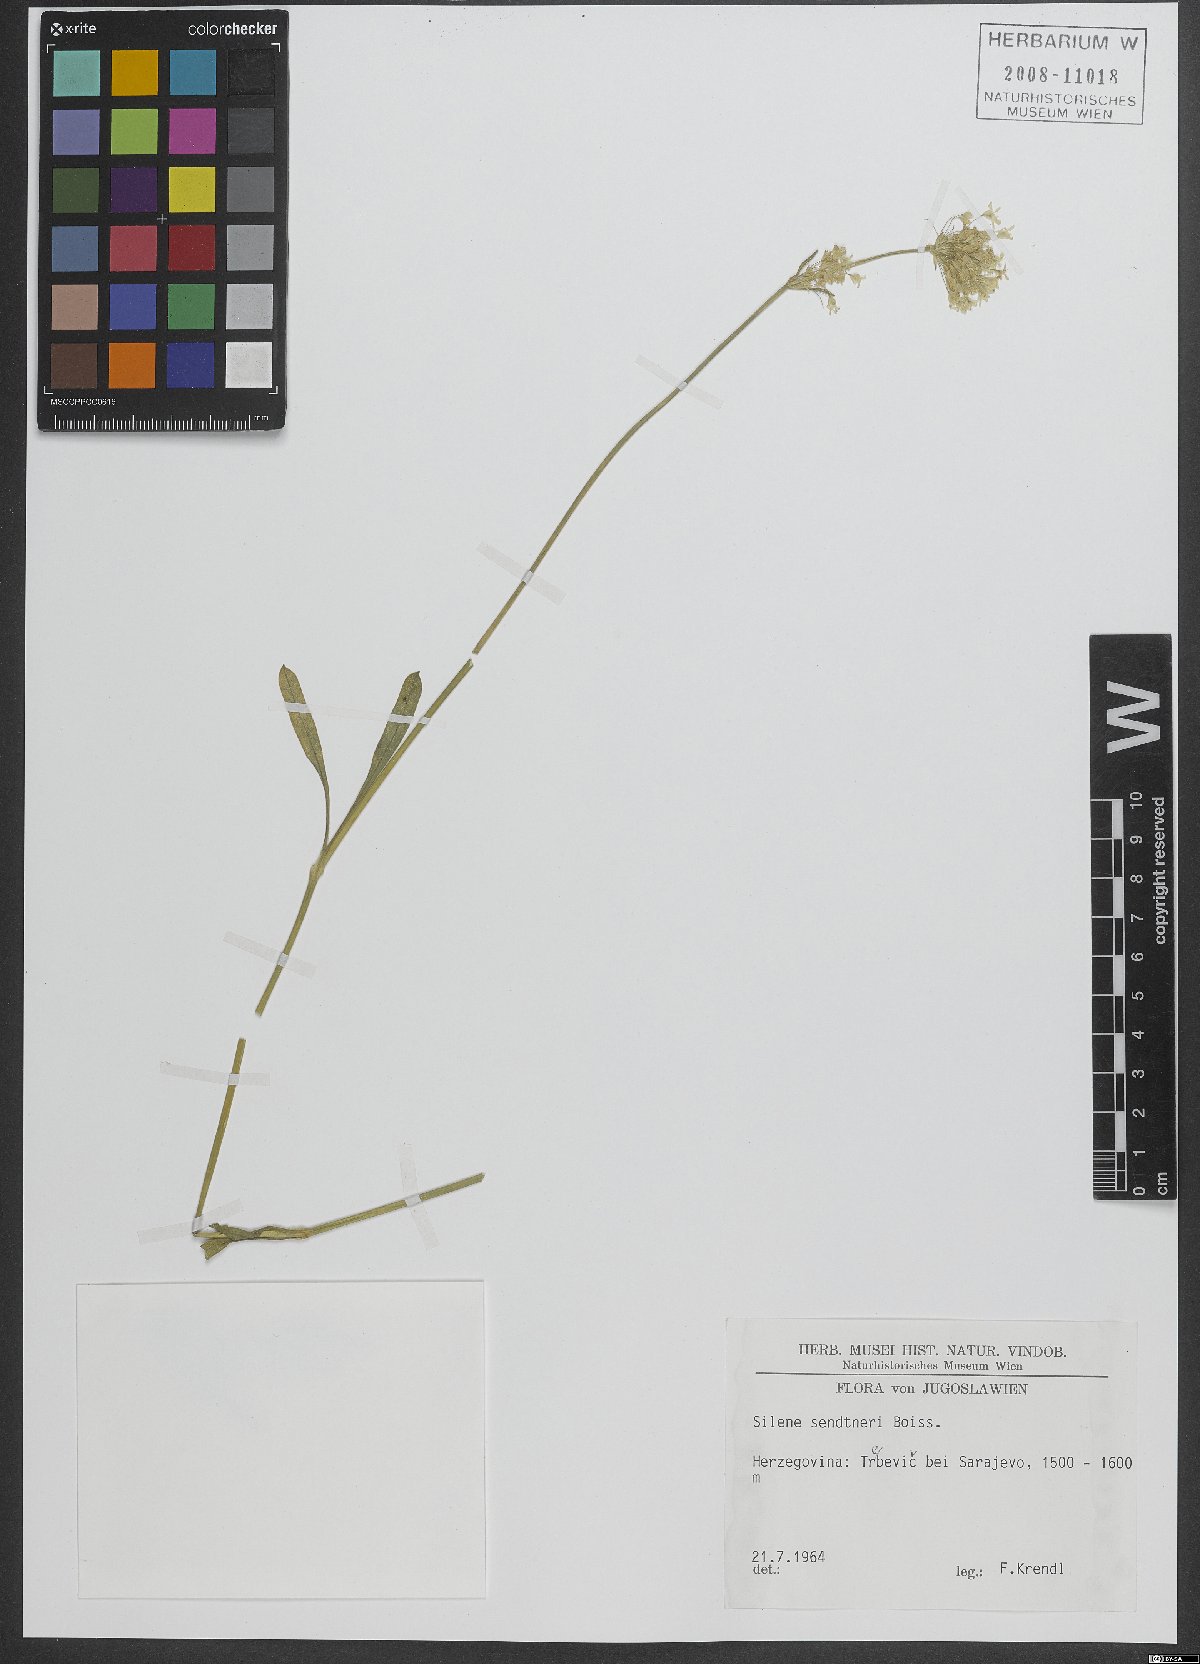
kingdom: Plantae
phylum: Tracheophyta
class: Magnoliopsida
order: Caryophyllales
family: Caryophyllaceae
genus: Silene
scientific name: Silene sendtneri
